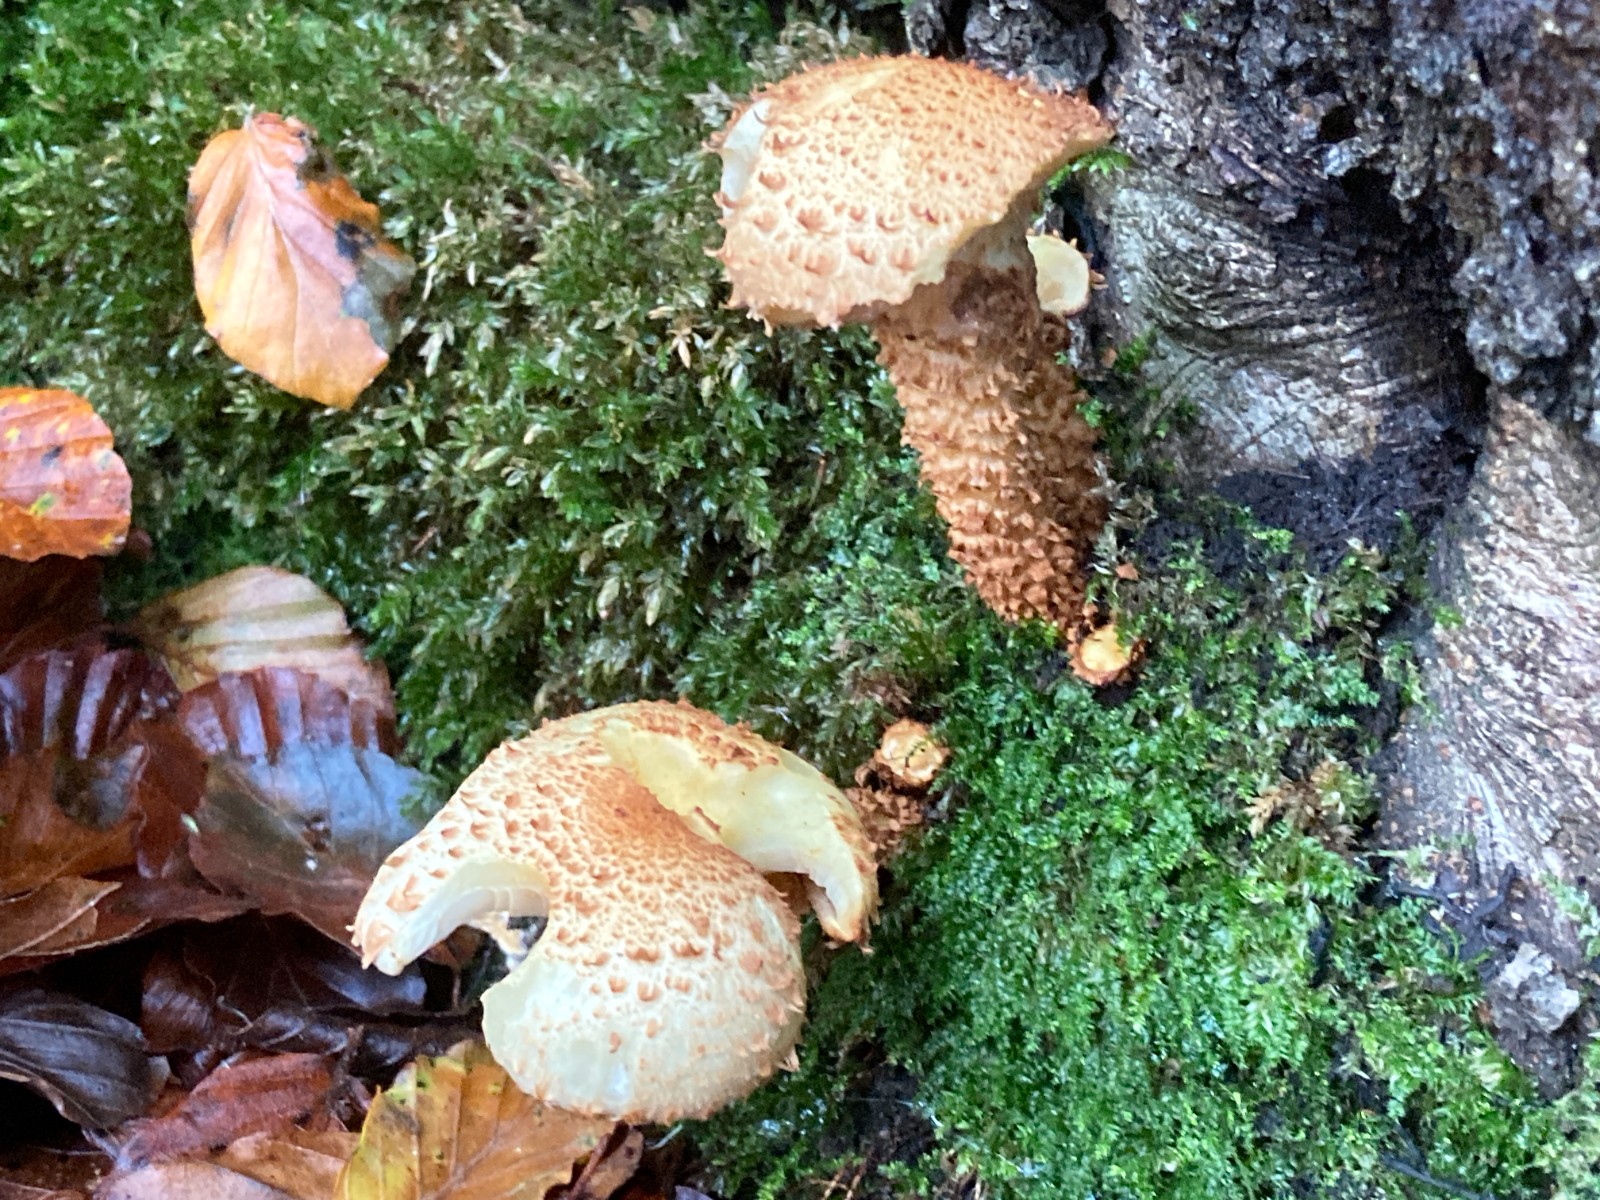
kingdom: Fungi
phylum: Basidiomycota
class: Agaricomycetes
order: Agaricales
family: Strophariaceae
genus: Pholiota
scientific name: Pholiota squarrosa
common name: krumskællet skælhat
